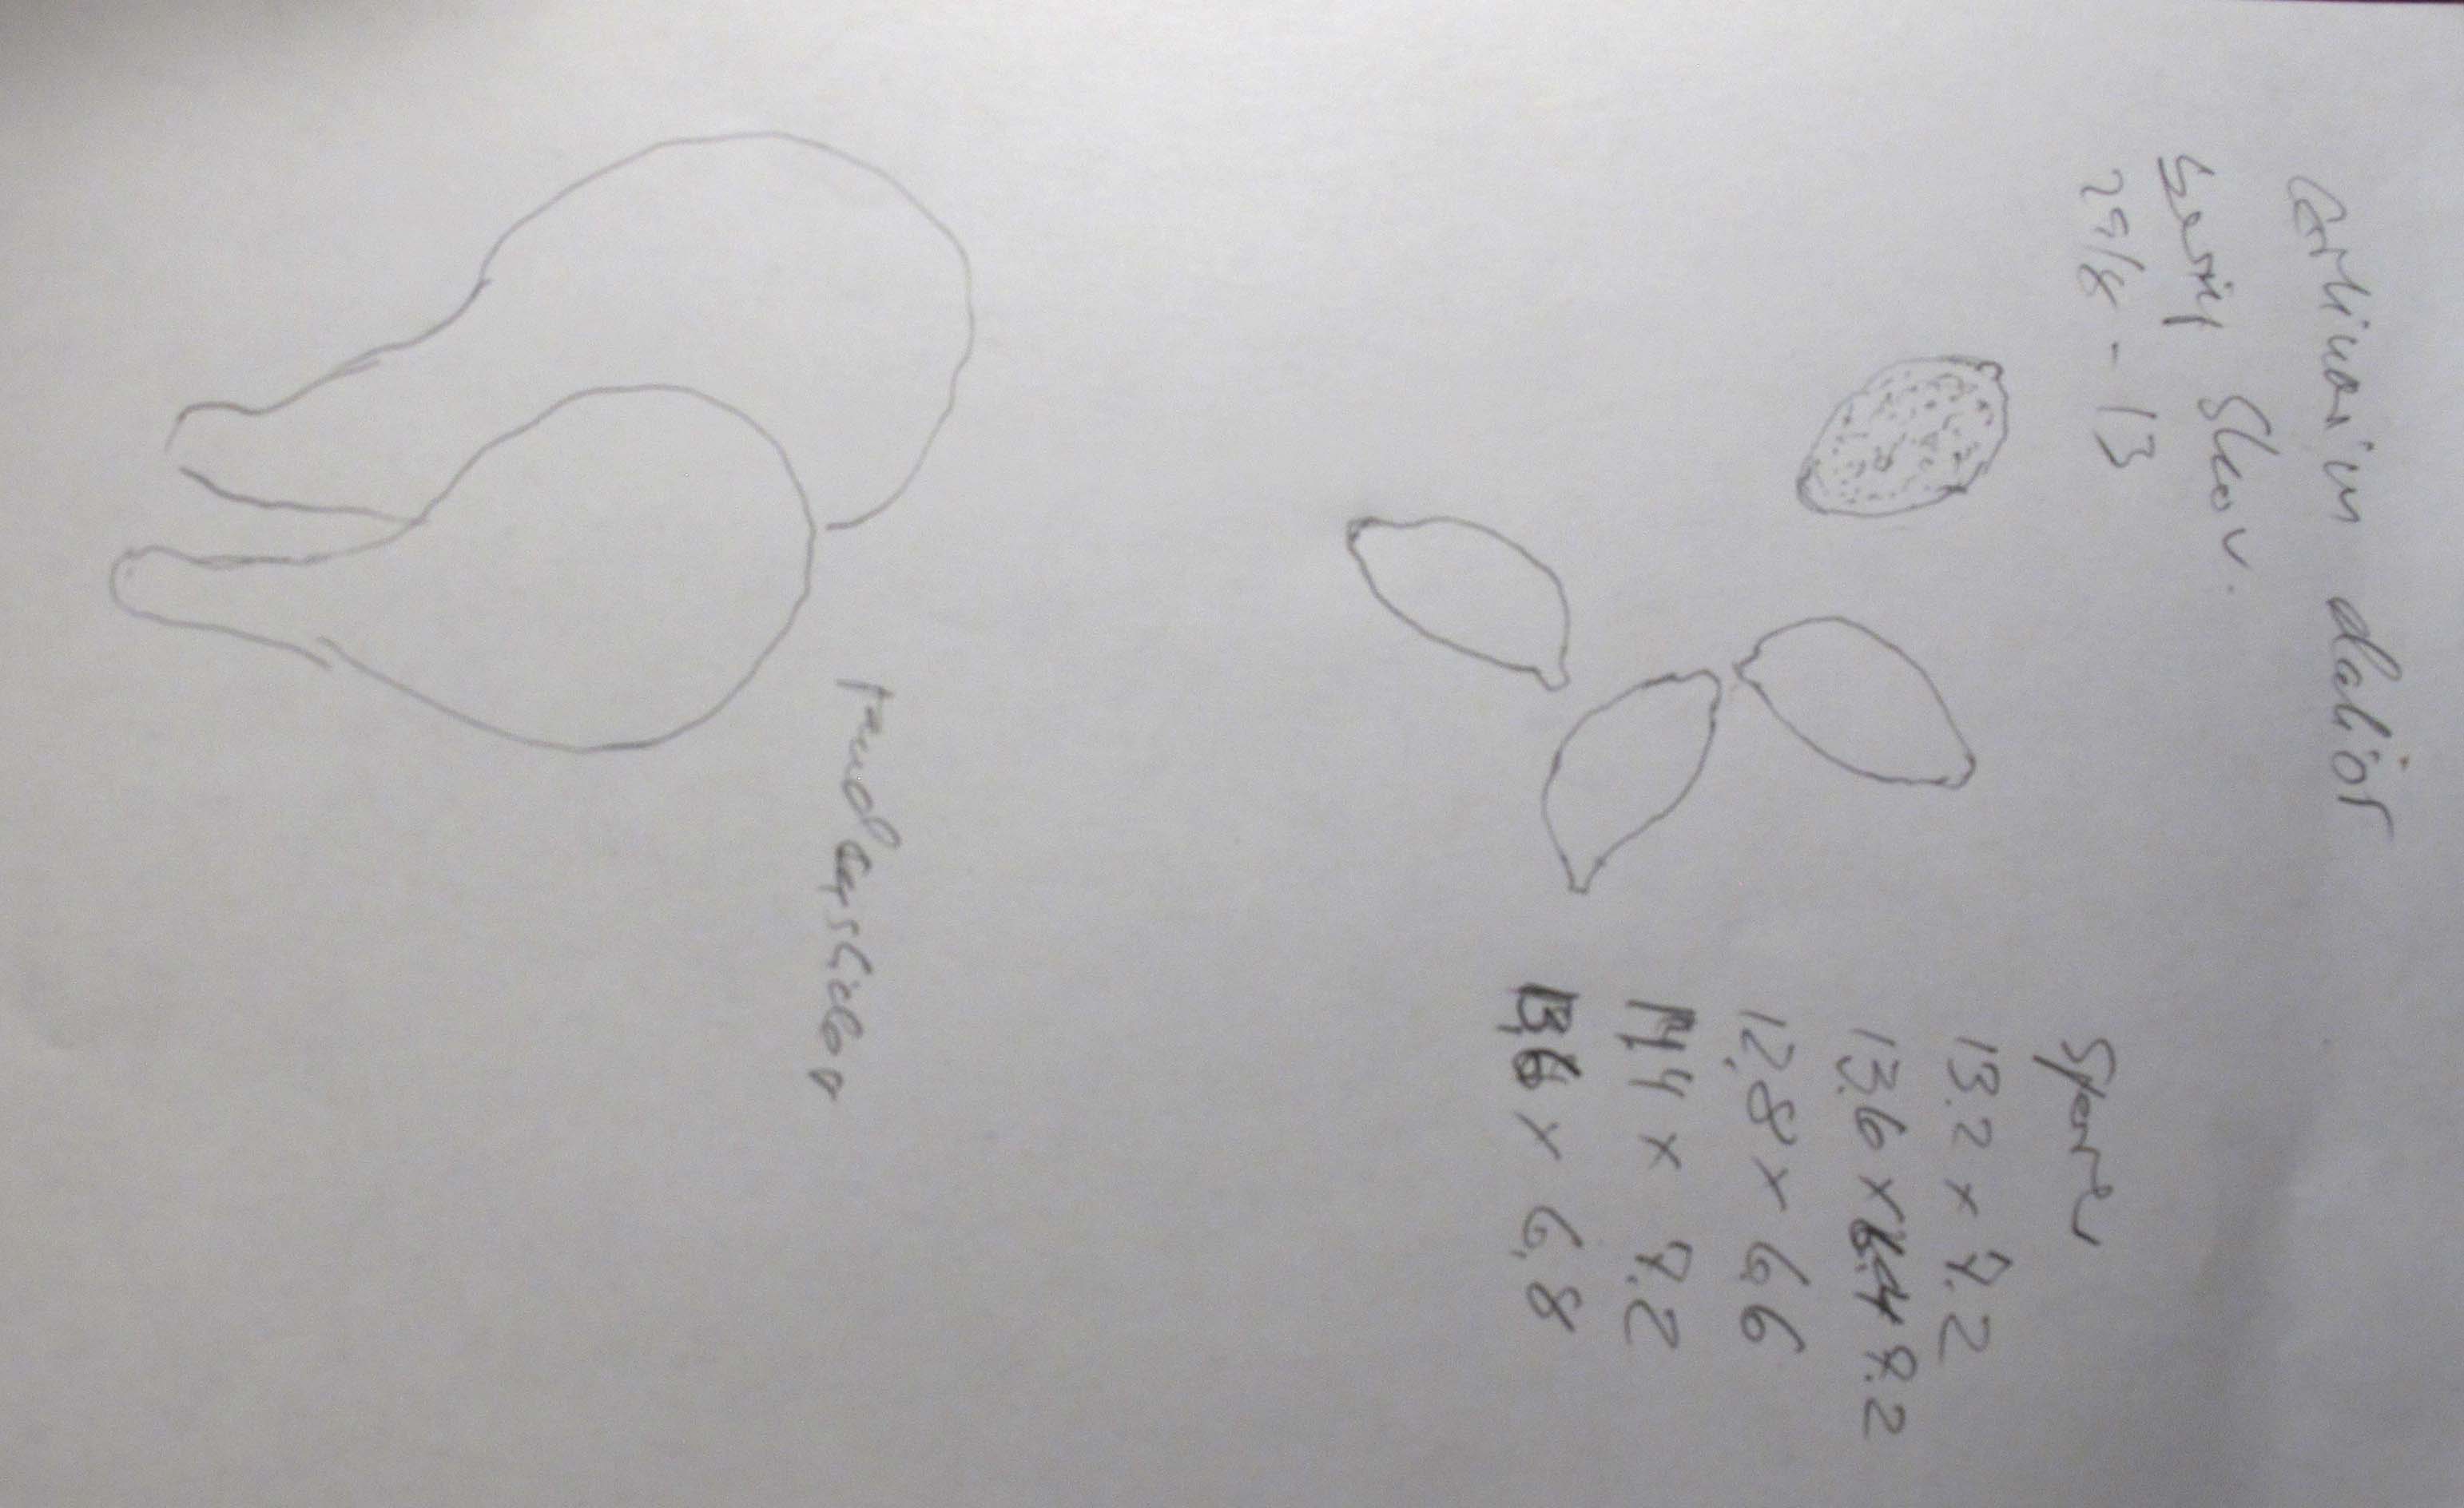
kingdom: Fungi
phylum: Basidiomycota
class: Agaricomycetes
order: Agaricales
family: Cortinariaceae
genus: Cortinarius
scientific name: Cortinarius elatior
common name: høj slørhat
